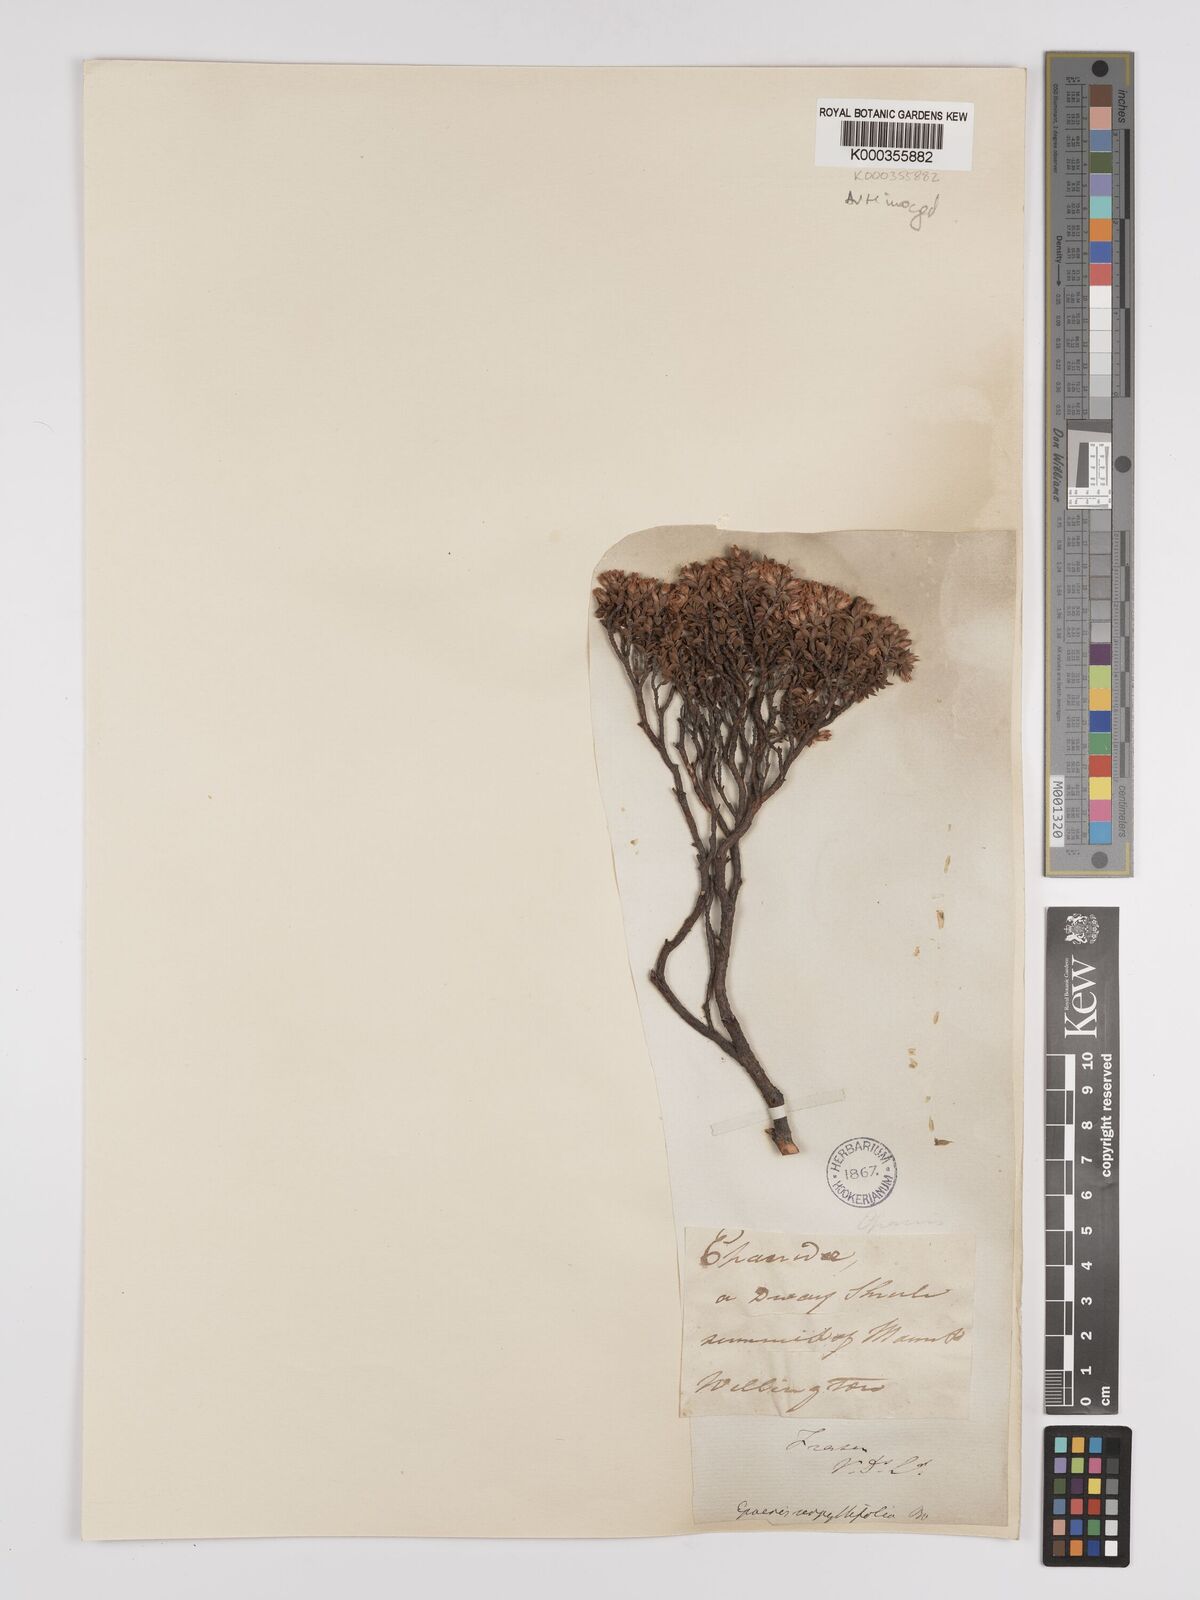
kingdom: Plantae
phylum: Tracheophyta
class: Magnoliopsida
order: Ericales
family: Ericaceae
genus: Epacris
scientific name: Epacris serpyllifolia
